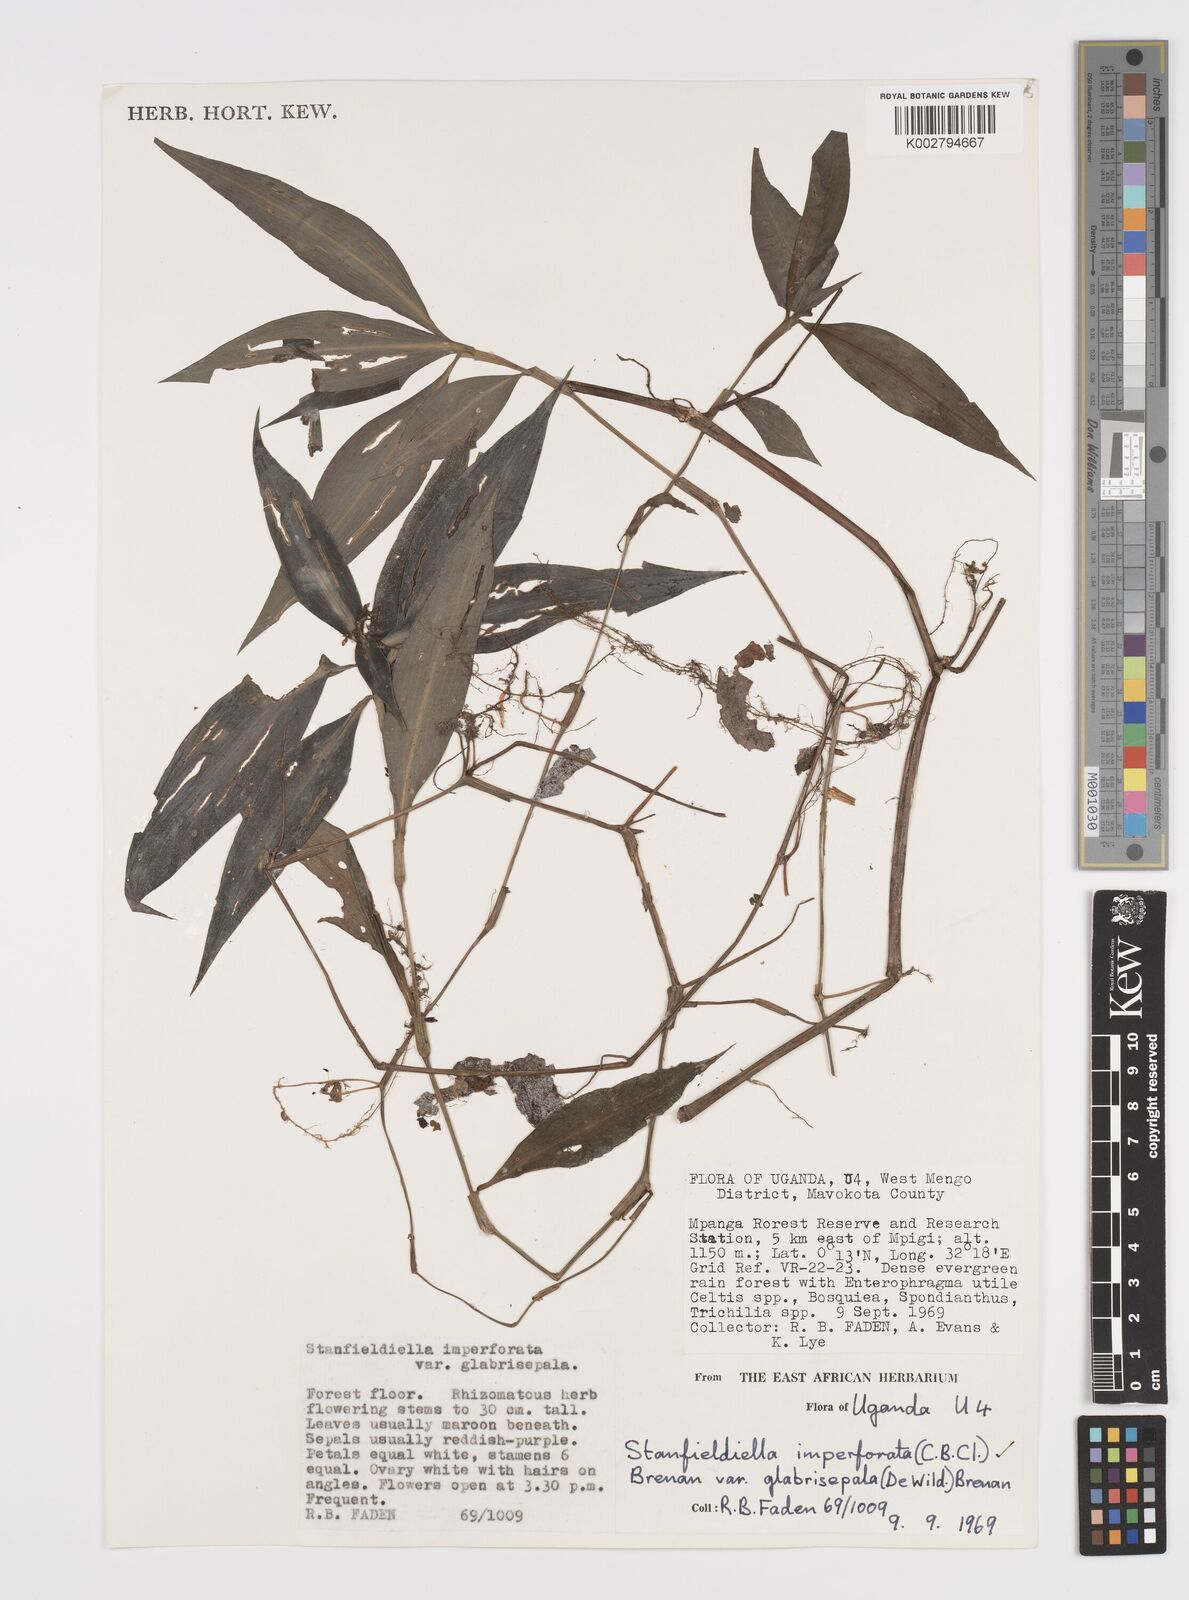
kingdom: Plantae
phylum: Tracheophyta
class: Liliopsida
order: Commelinales
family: Commelinaceae
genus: Stanfieldiella
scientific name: Stanfieldiella imperforata
